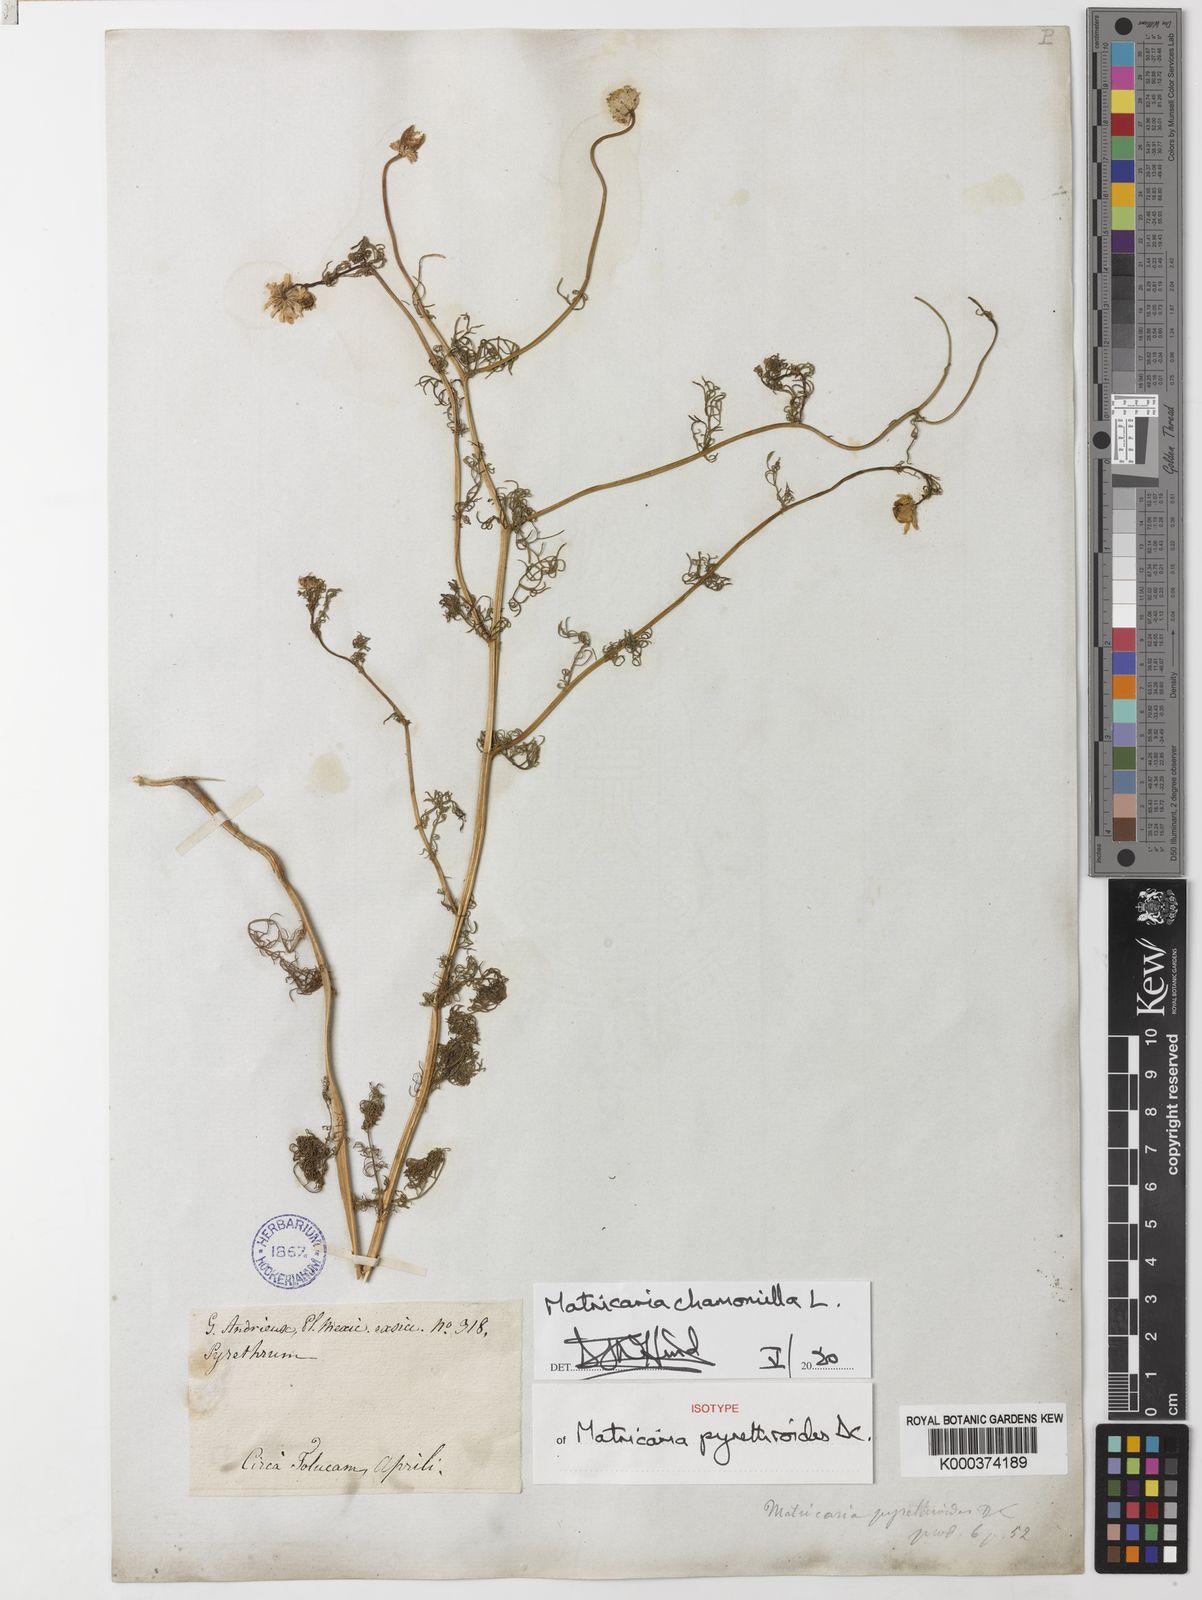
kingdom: Plantae
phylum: Tracheophyta
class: Magnoliopsida
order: Asterales
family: Asteraceae
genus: Matricaria
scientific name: Matricaria chamomilla
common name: Scented mayweed
